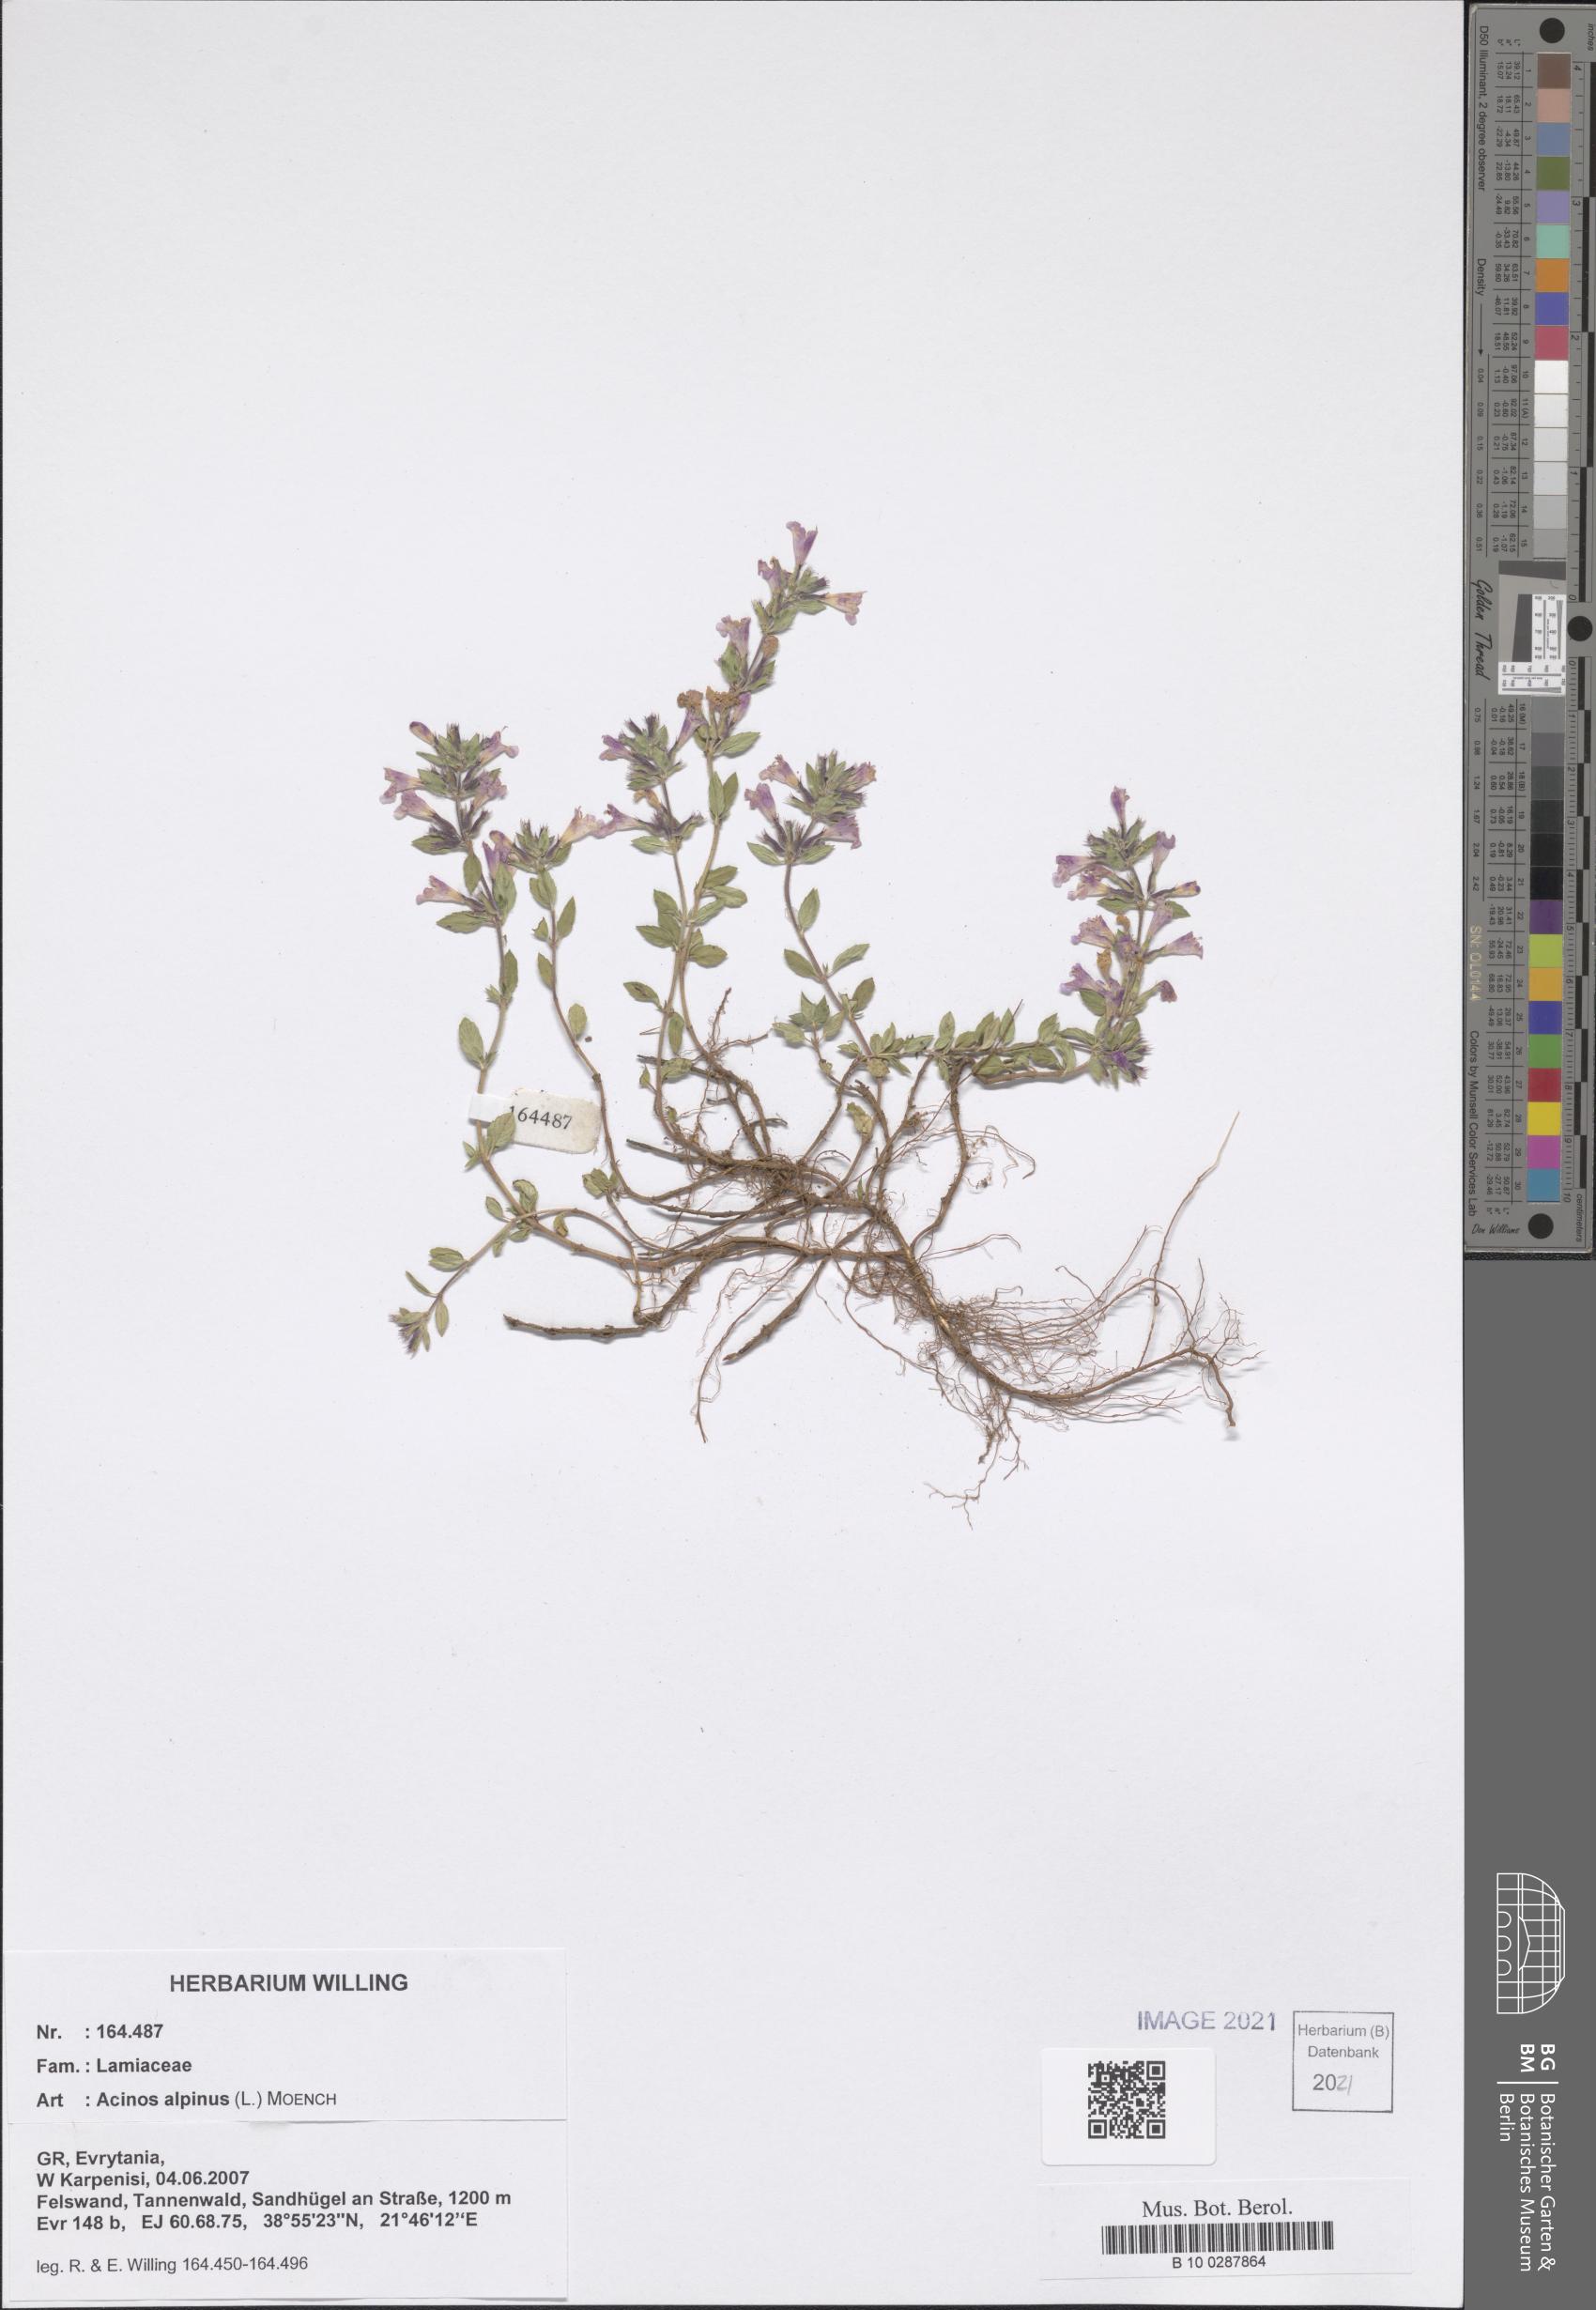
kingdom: Plantae
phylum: Tracheophyta
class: Magnoliopsida
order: Lamiales
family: Lamiaceae
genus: Clinopodium
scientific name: Clinopodium alpinum
